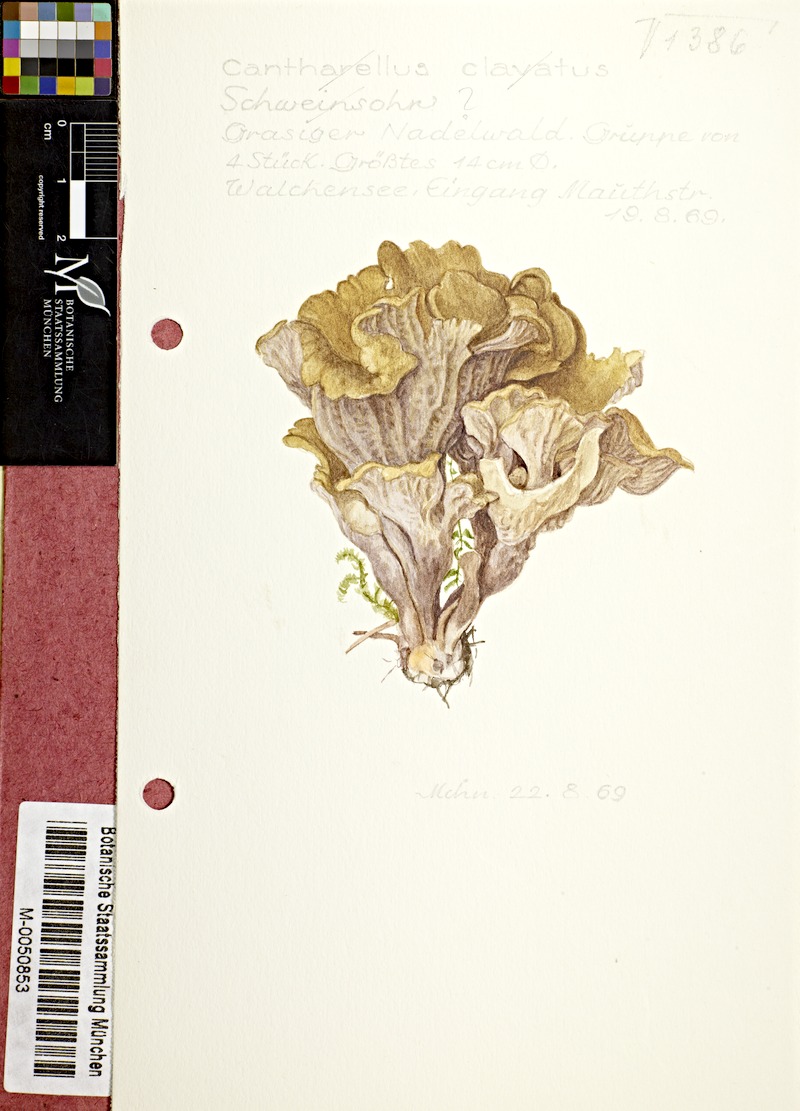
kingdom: Fungi
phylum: Basidiomycota
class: Agaricomycetes
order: Gomphales
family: Gomphaceae
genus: Gomphus
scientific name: Gomphus clavatus
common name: Pig's ear
